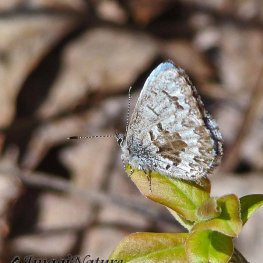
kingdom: Animalia
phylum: Arthropoda
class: Insecta
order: Lepidoptera
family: Lycaenidae
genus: Celastrina
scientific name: Celastrina lucia
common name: Northern Spring Azure
